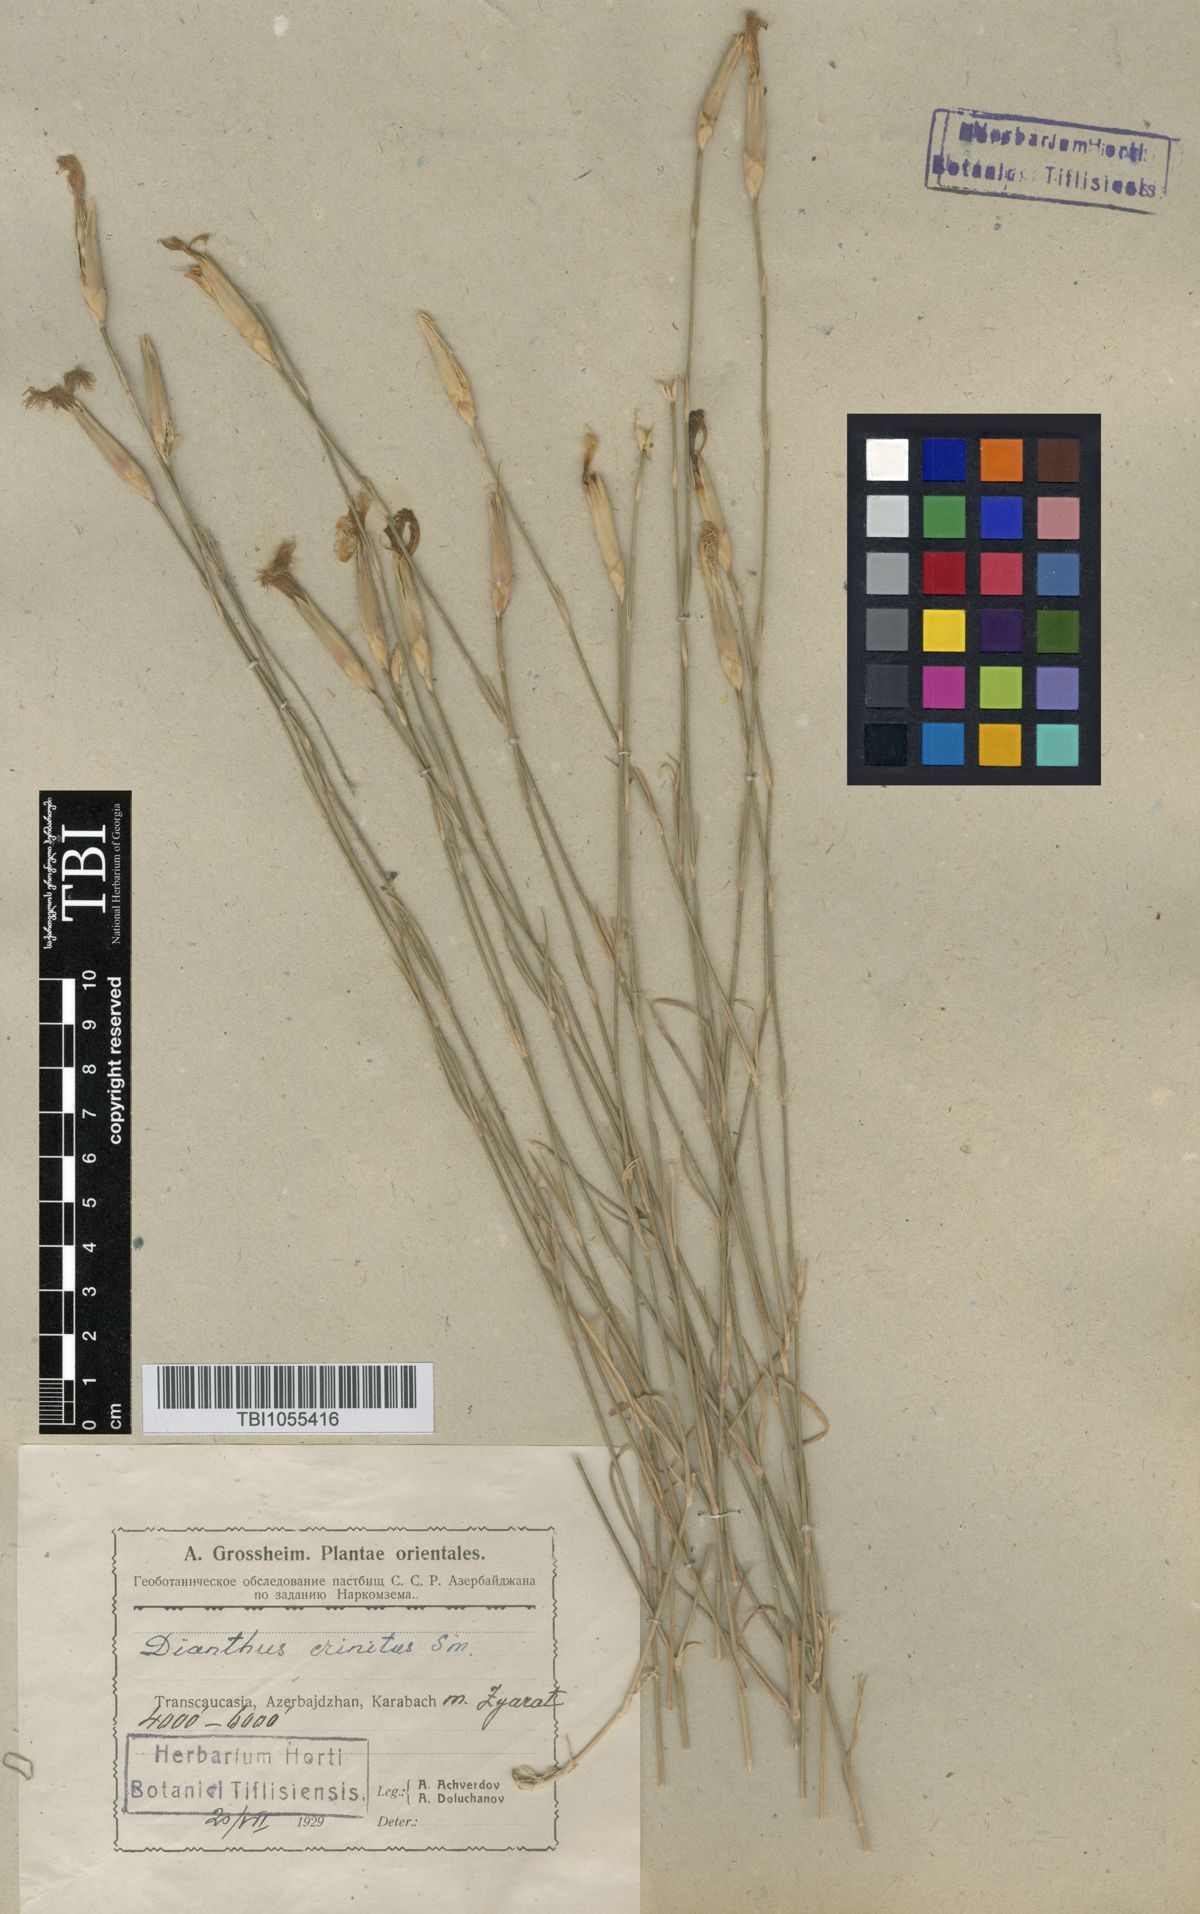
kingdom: Plantae
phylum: Tracheophyta
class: Magnoliopsida
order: Caryophyllales
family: Caryophyllaceae
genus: Dianthus
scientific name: Dianthus crinitus
